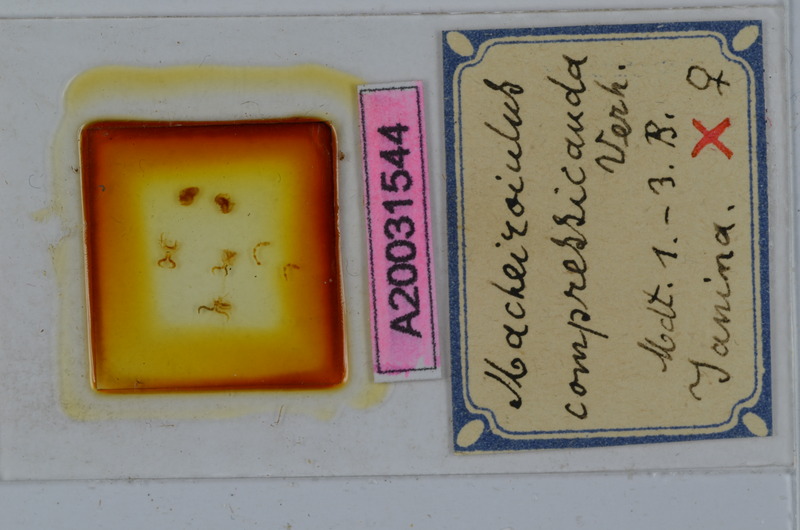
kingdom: Animalia
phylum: Arthropoda
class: Diplopoda
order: Julida
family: Julidae
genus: Macheiroiulus
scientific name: Macheiroiulus compressicauda
